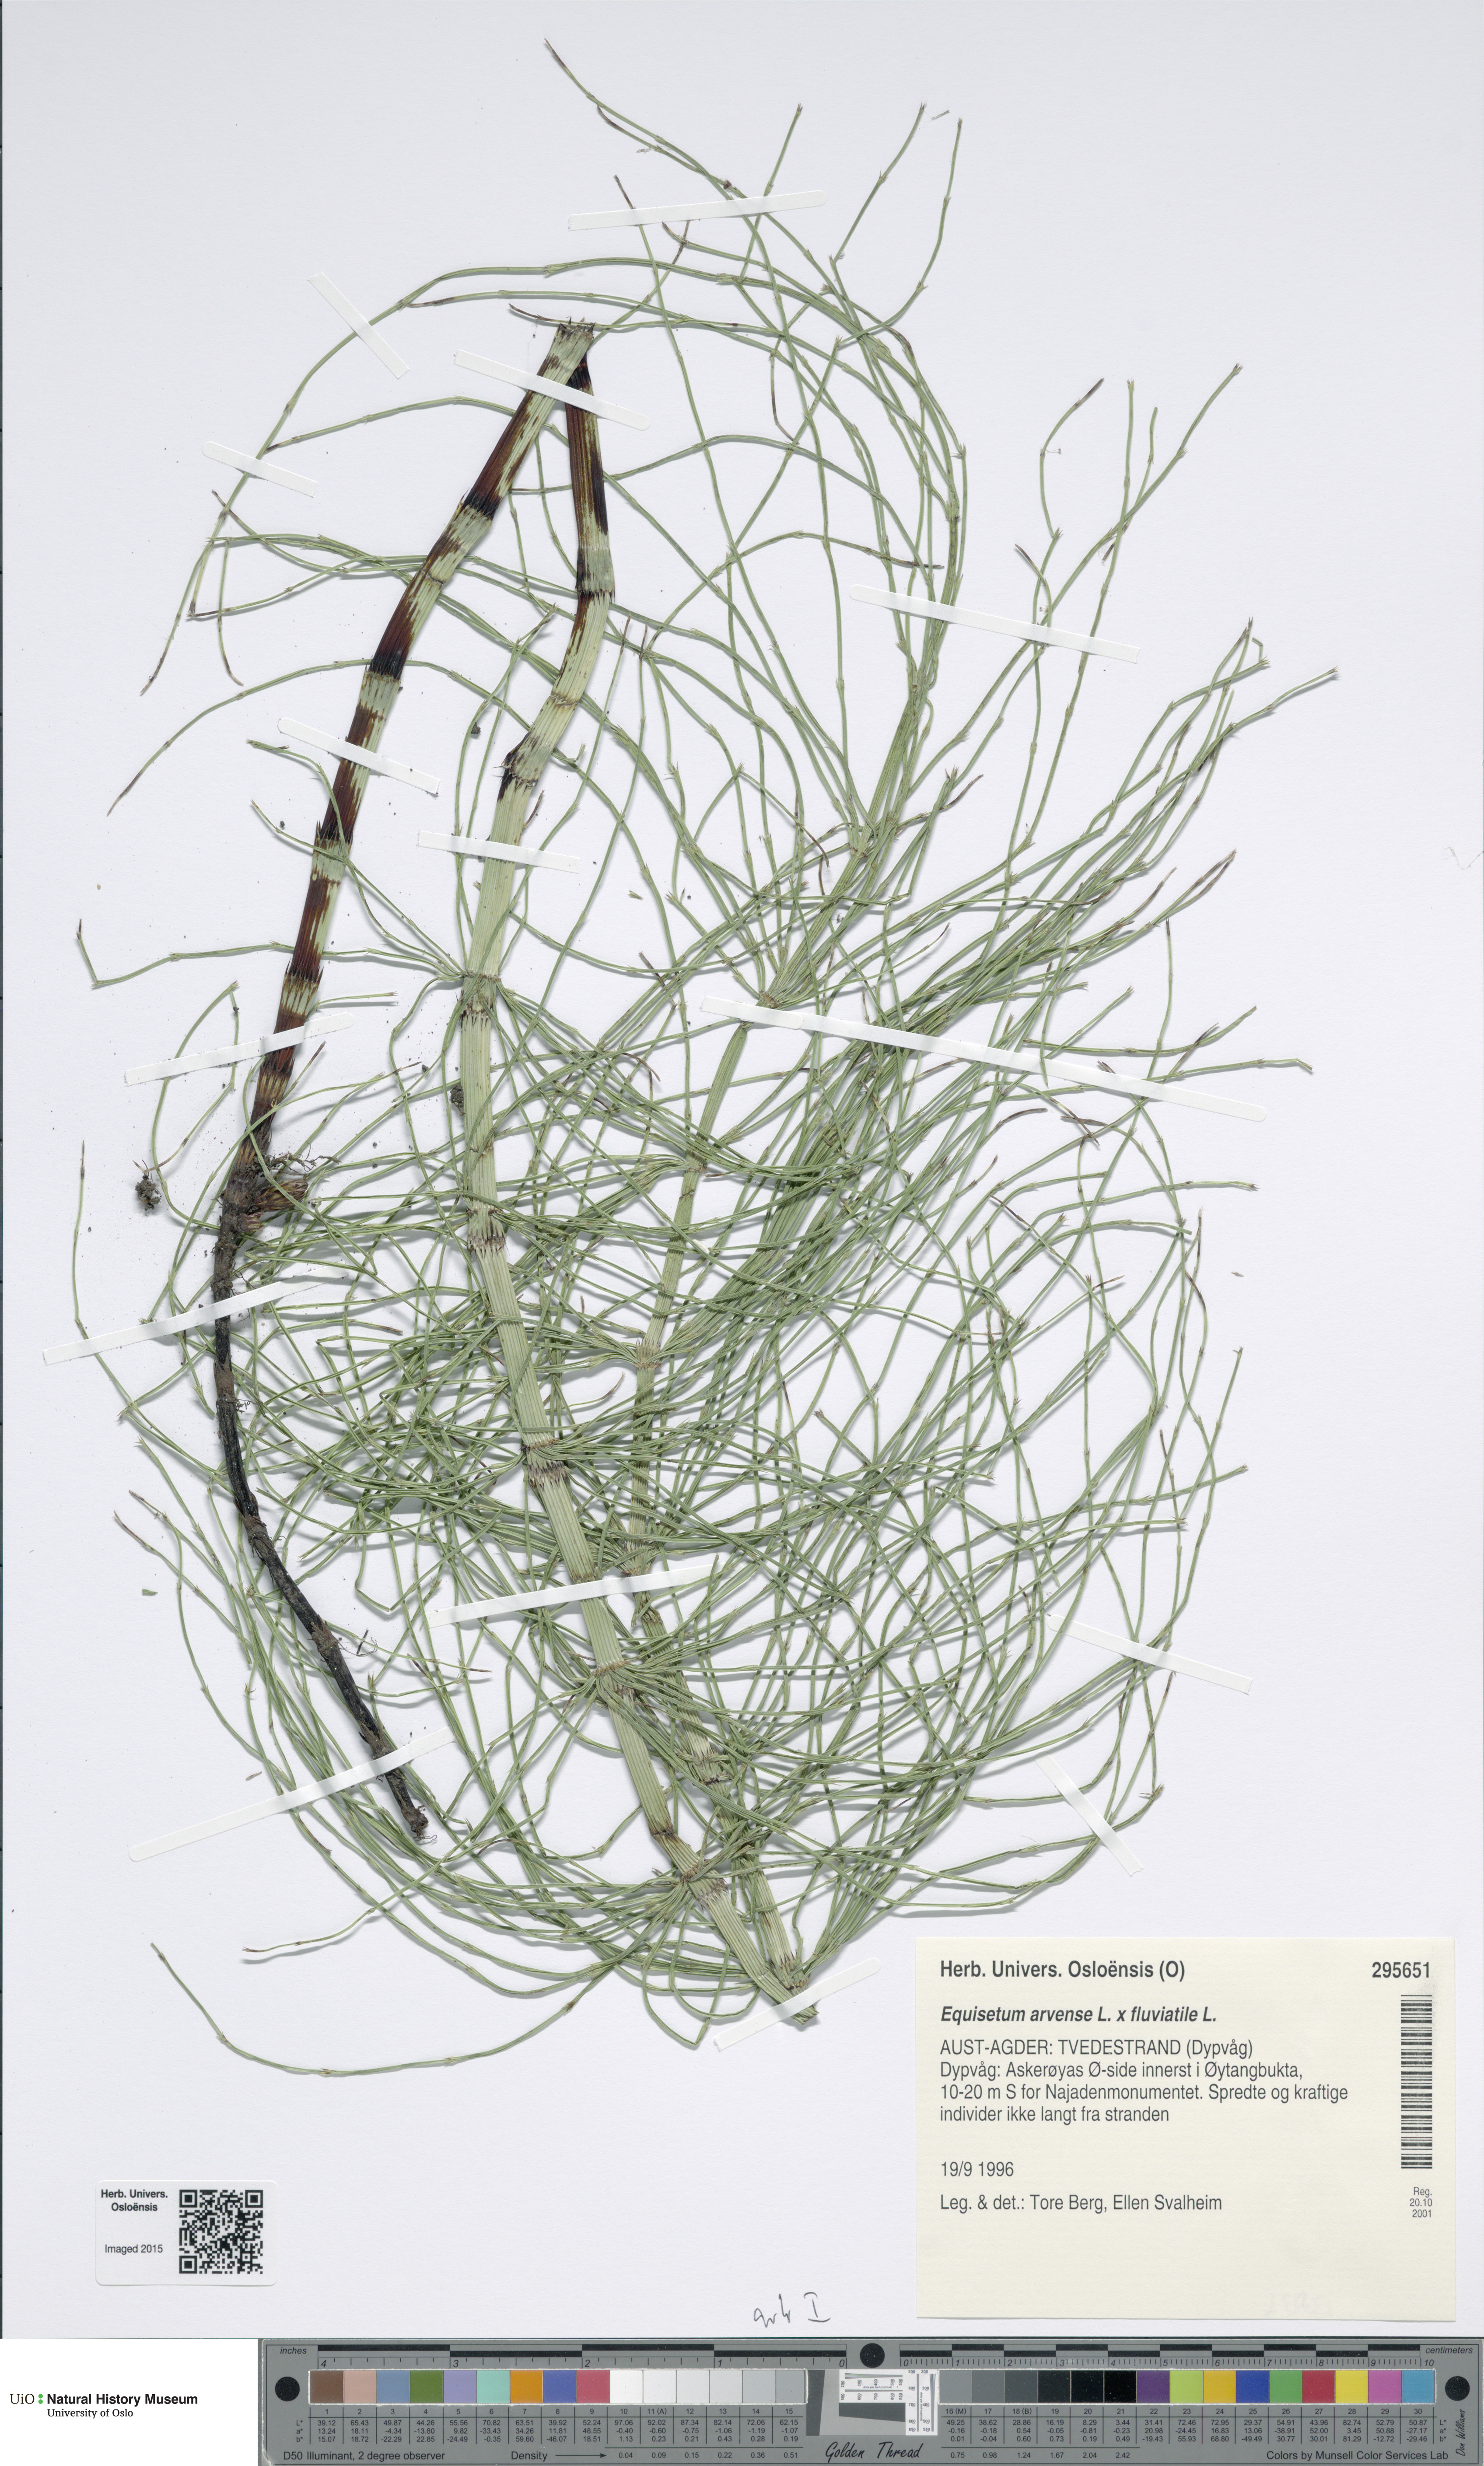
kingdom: Plantae
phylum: Tracheophyta
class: Polypodiopsida
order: Equisetales
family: Equisetaceae
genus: Equisetum
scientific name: Equisetum
